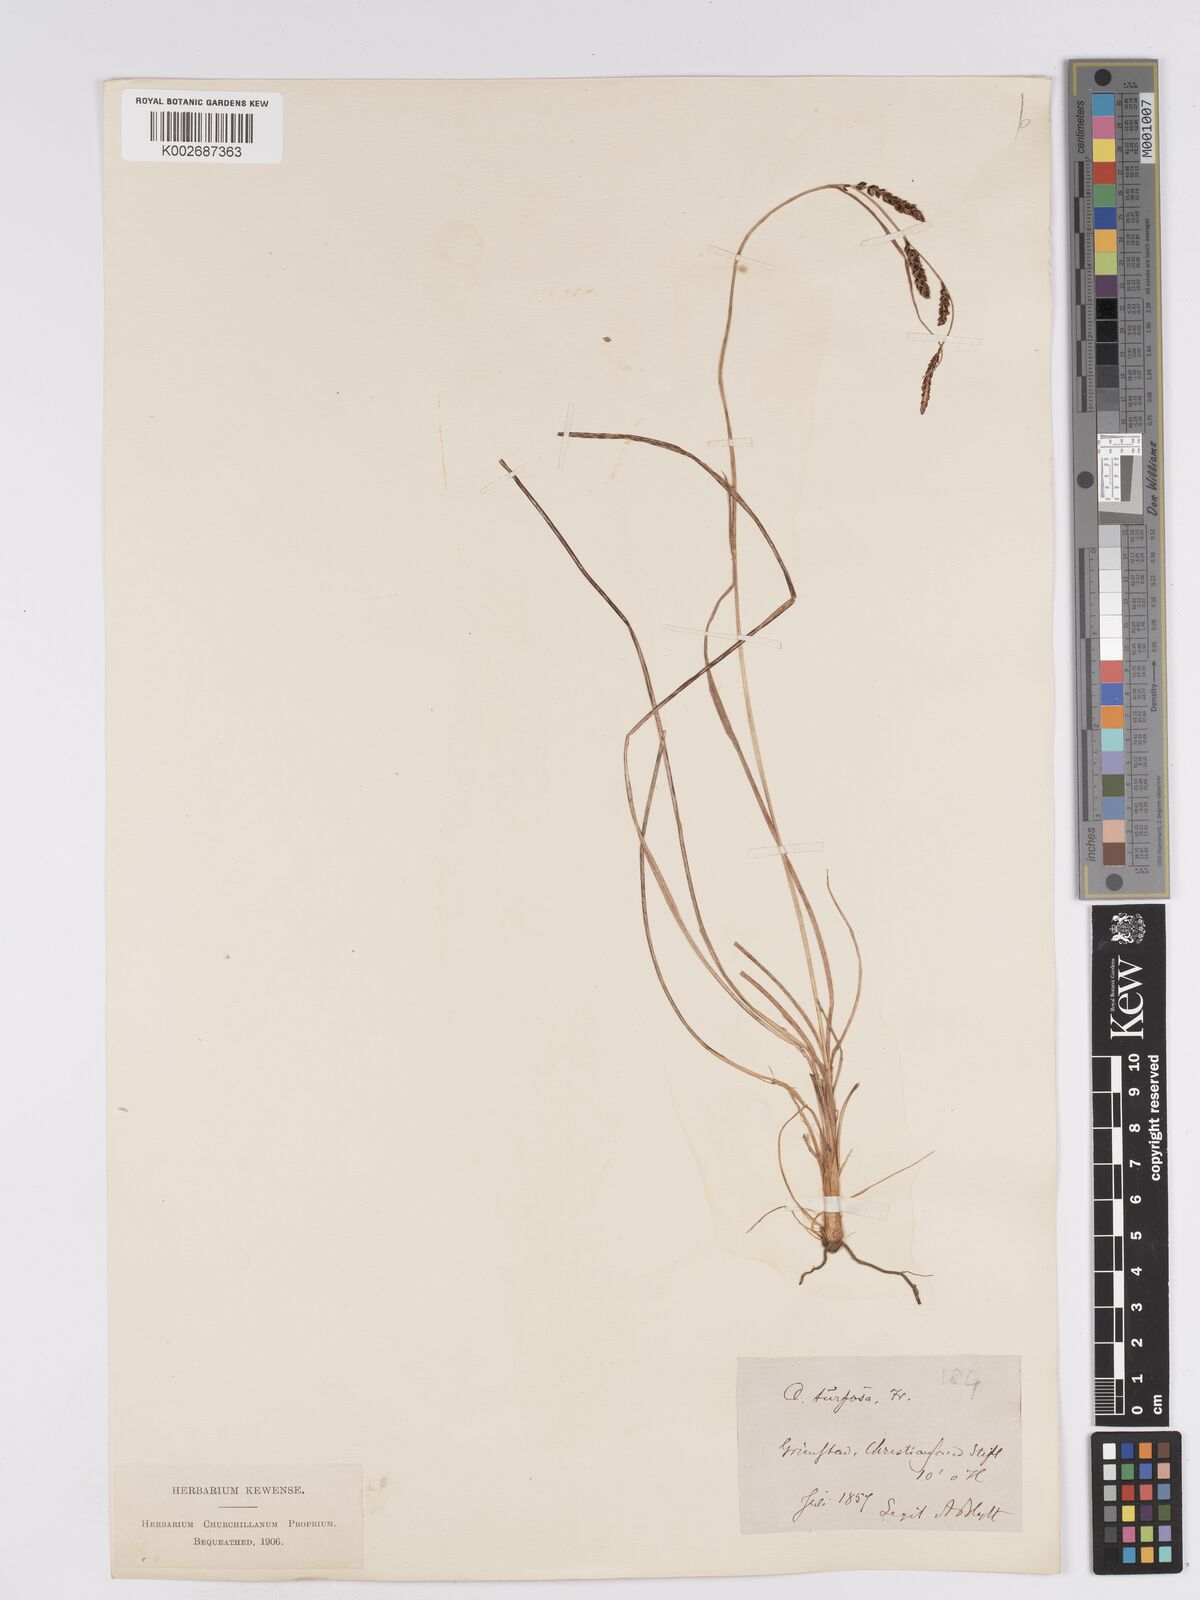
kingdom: Plantae
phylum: Tracheophyta
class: Liliopsida
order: Poales
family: Cyperaceae
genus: Carex
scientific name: Carex nigra
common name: Common sedge
